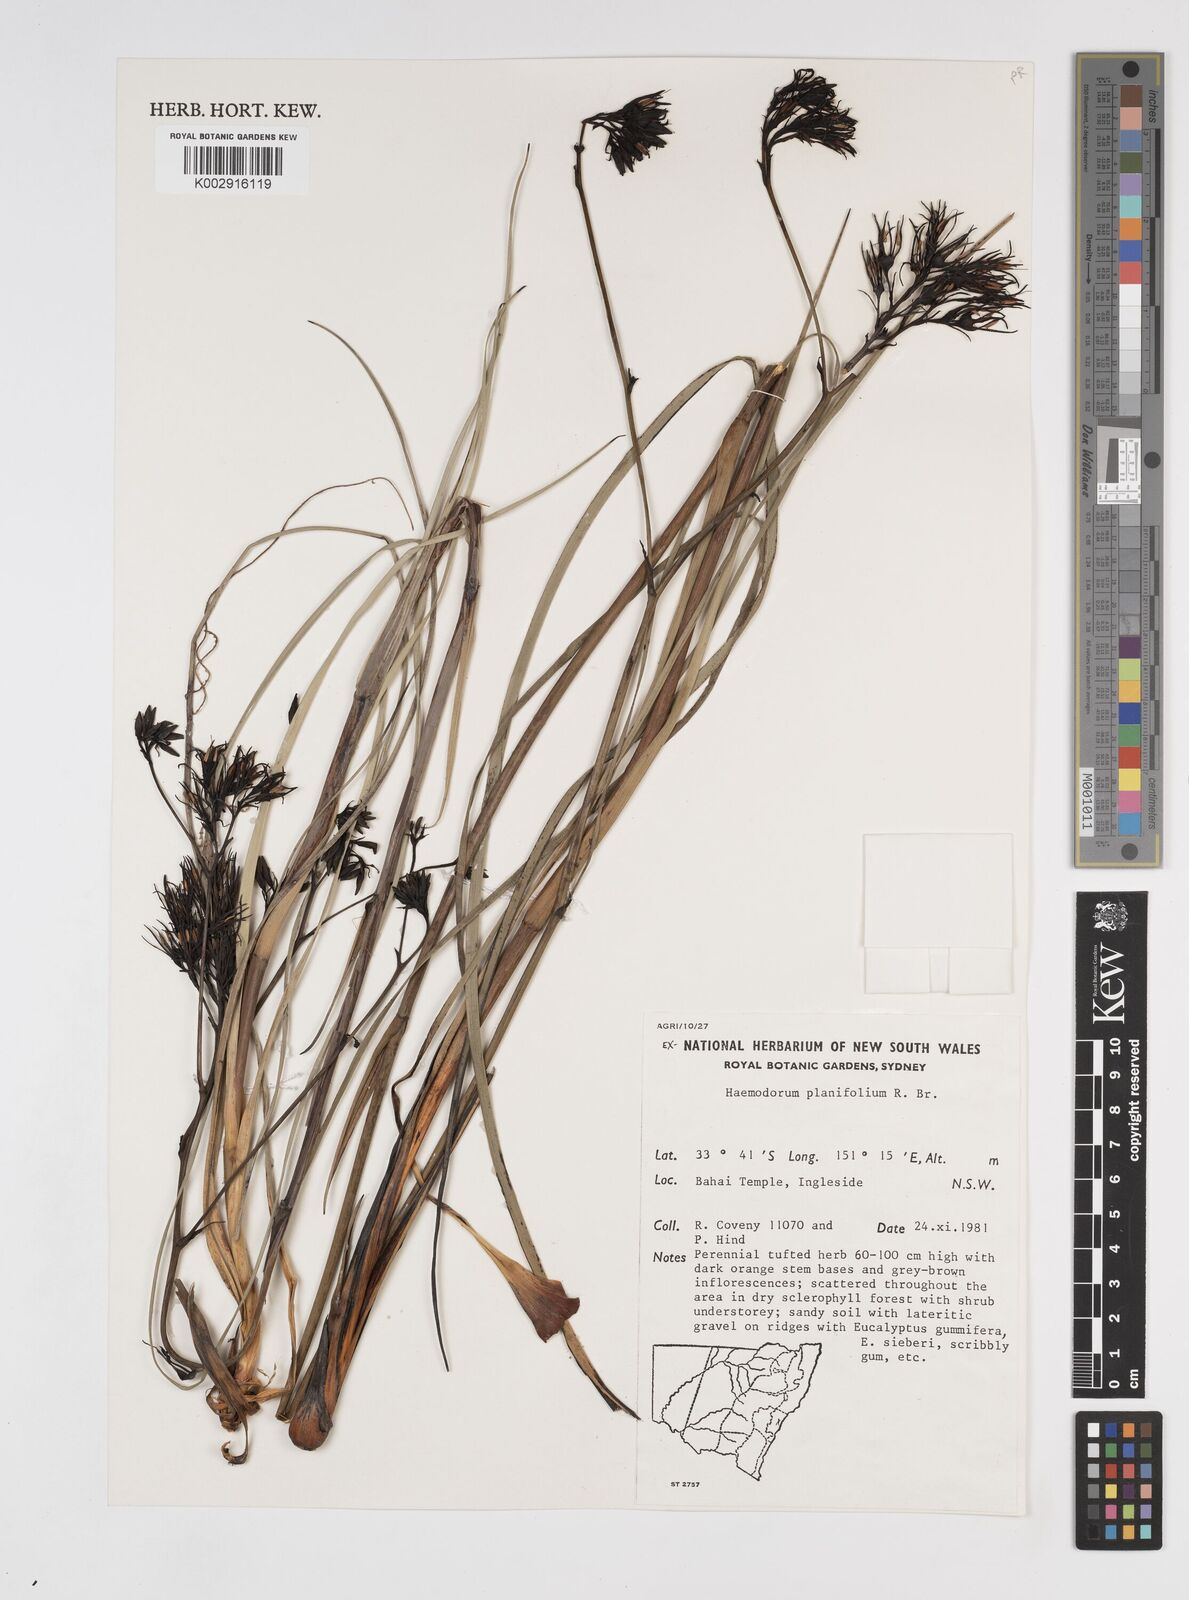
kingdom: Plantae
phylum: Tracheophyta
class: Liliopsida
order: Commelinales
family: Haemodoraceae
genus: Haemodorum
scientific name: Haemodorum planifolium
